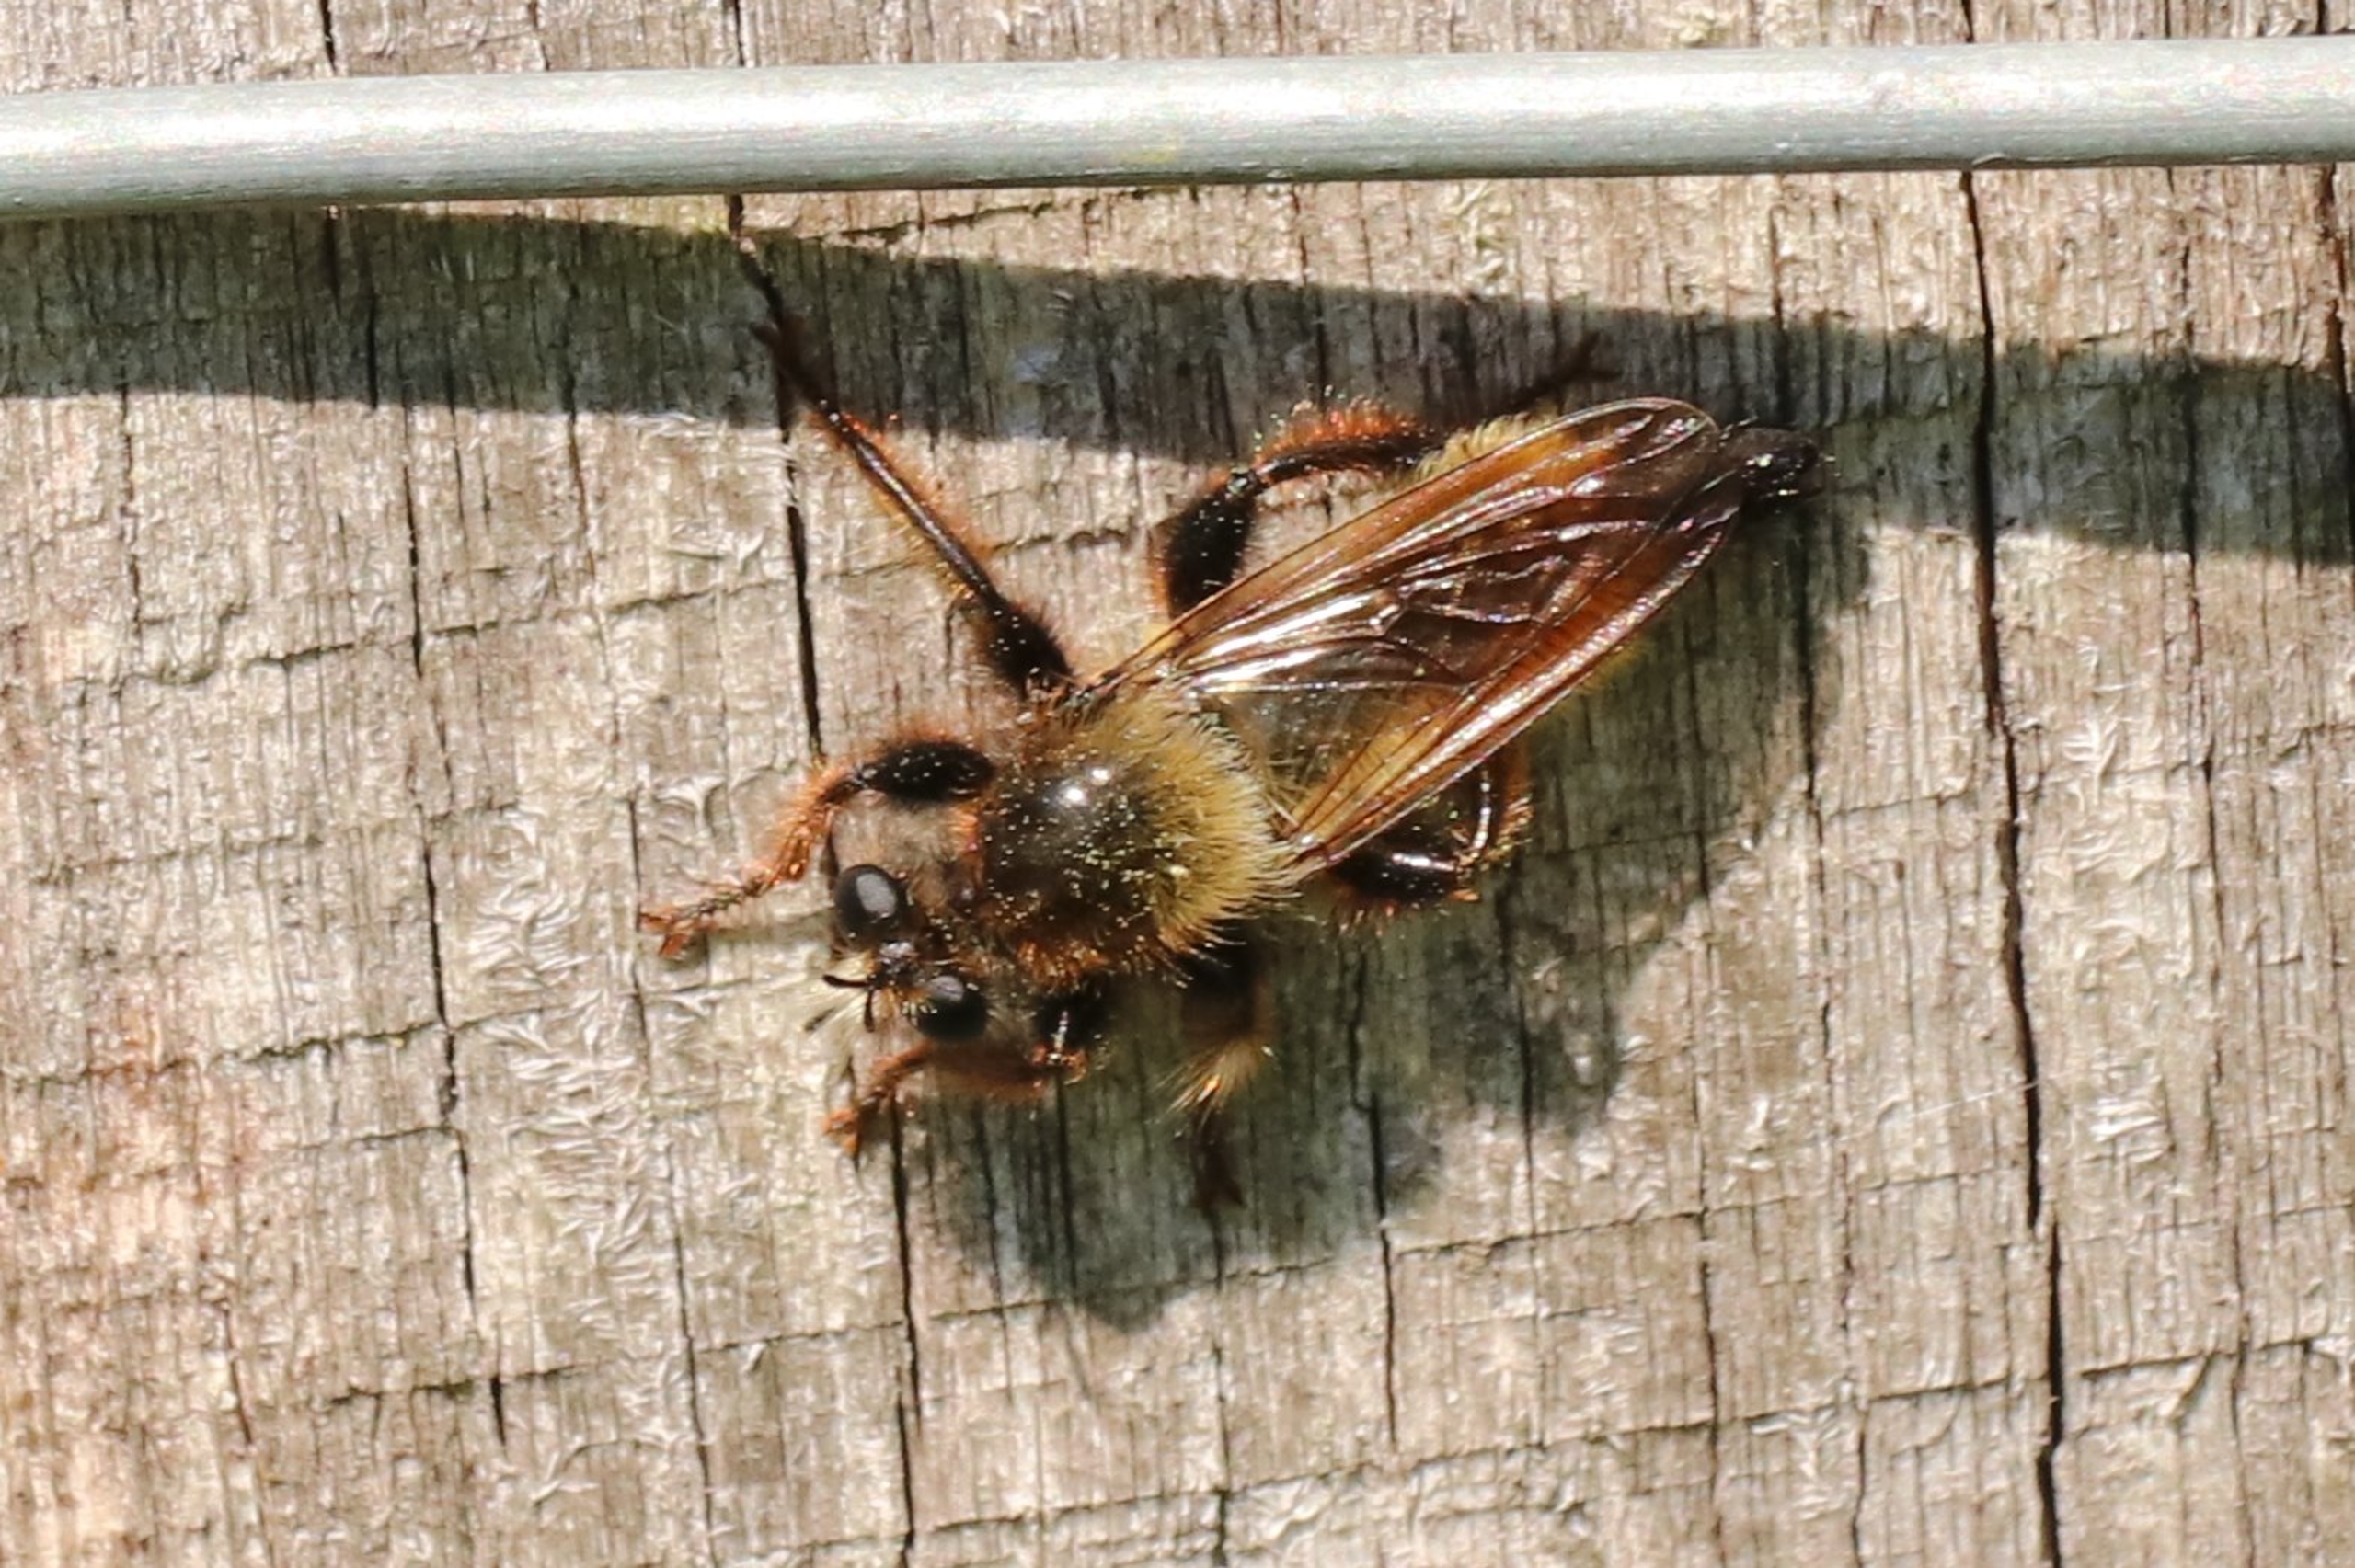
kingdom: Animalia
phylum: Arthropoda
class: Insecta
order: Diptera
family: Asilidae
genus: Laphria
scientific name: Laphria flava
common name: Gul vedrovflue
